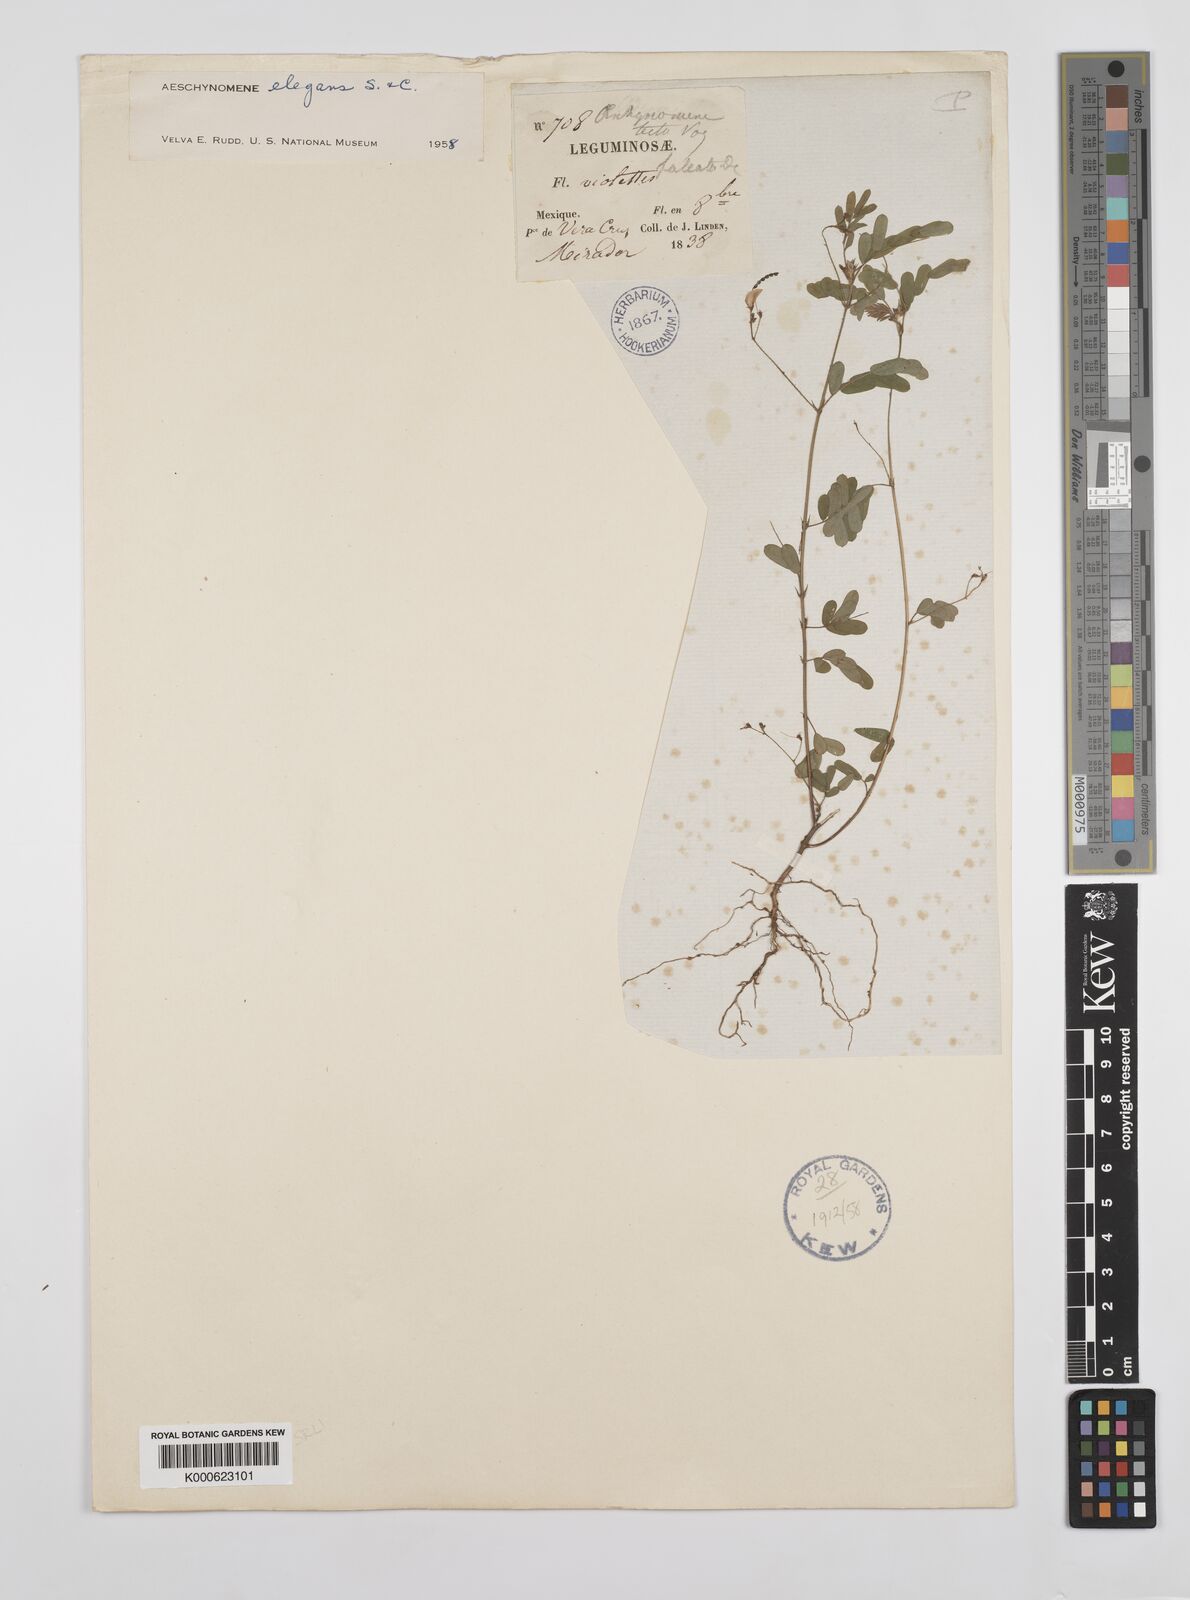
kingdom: Plantae
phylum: Tracheophyta
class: Magnoliopsida
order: Fabales
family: Fabaceae
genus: Ctenodon
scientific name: Ctenodon elegans
